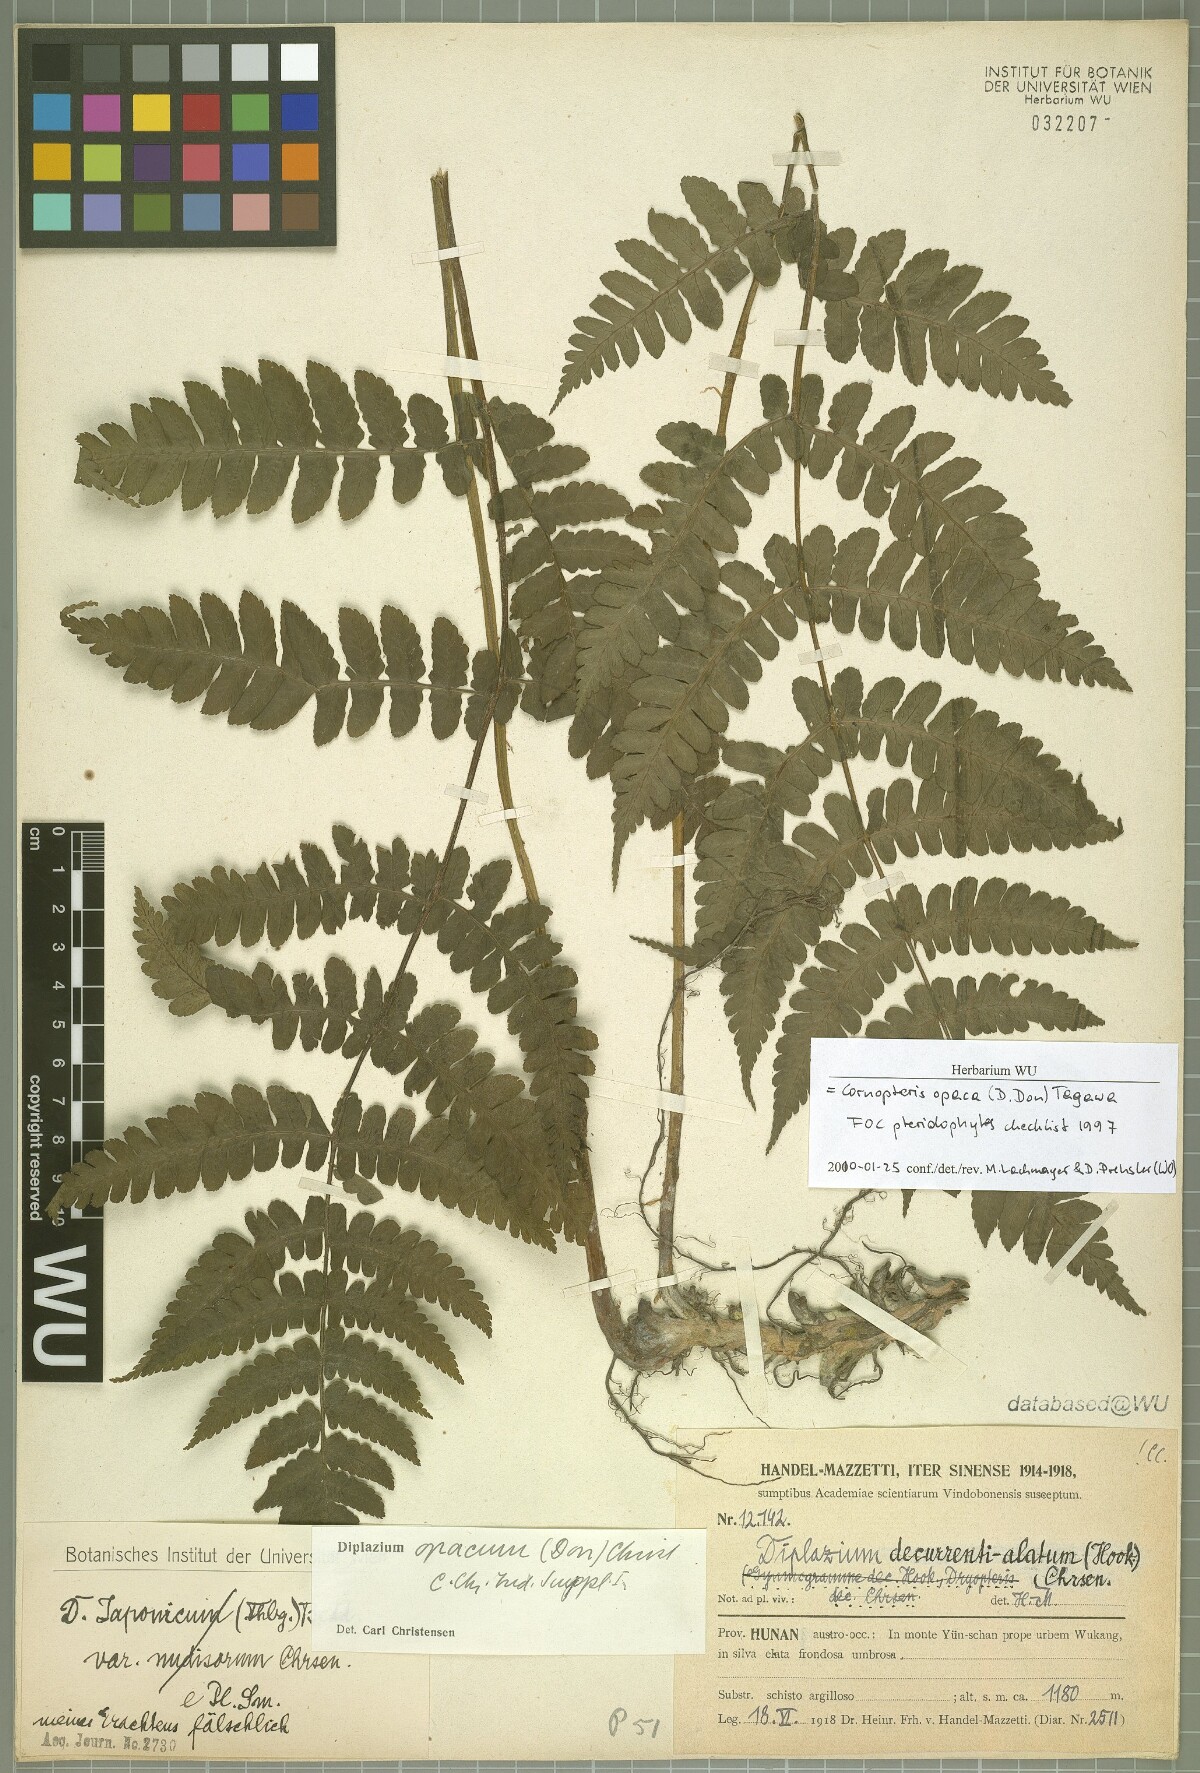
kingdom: Plantae
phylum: Tracheophyta
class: Polypodiopsida
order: Polypodiales
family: Athyriaceae
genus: Cornopteris
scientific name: Cornopteris opaca
